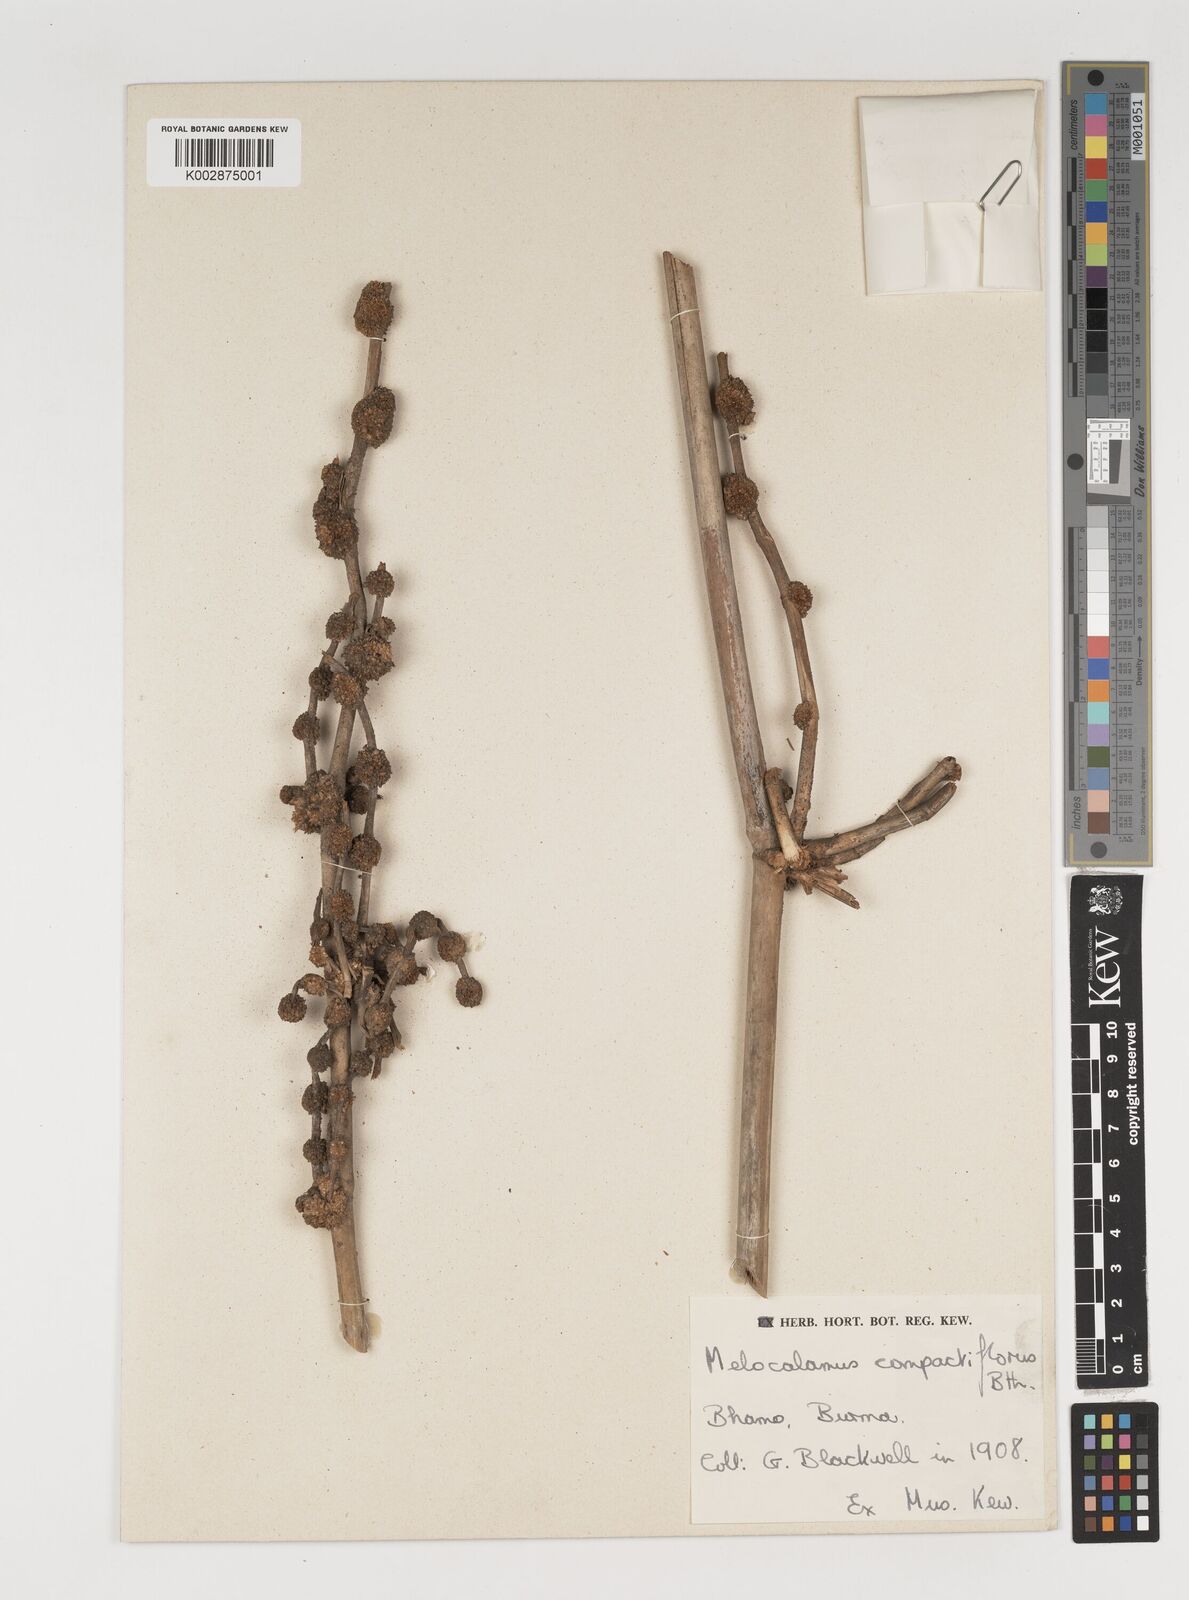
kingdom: Plantae
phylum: Tracheophyta
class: Liliopsida
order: Poales
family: Poaceae
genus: Melocalamus
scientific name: Melocalamus compactiflorus
